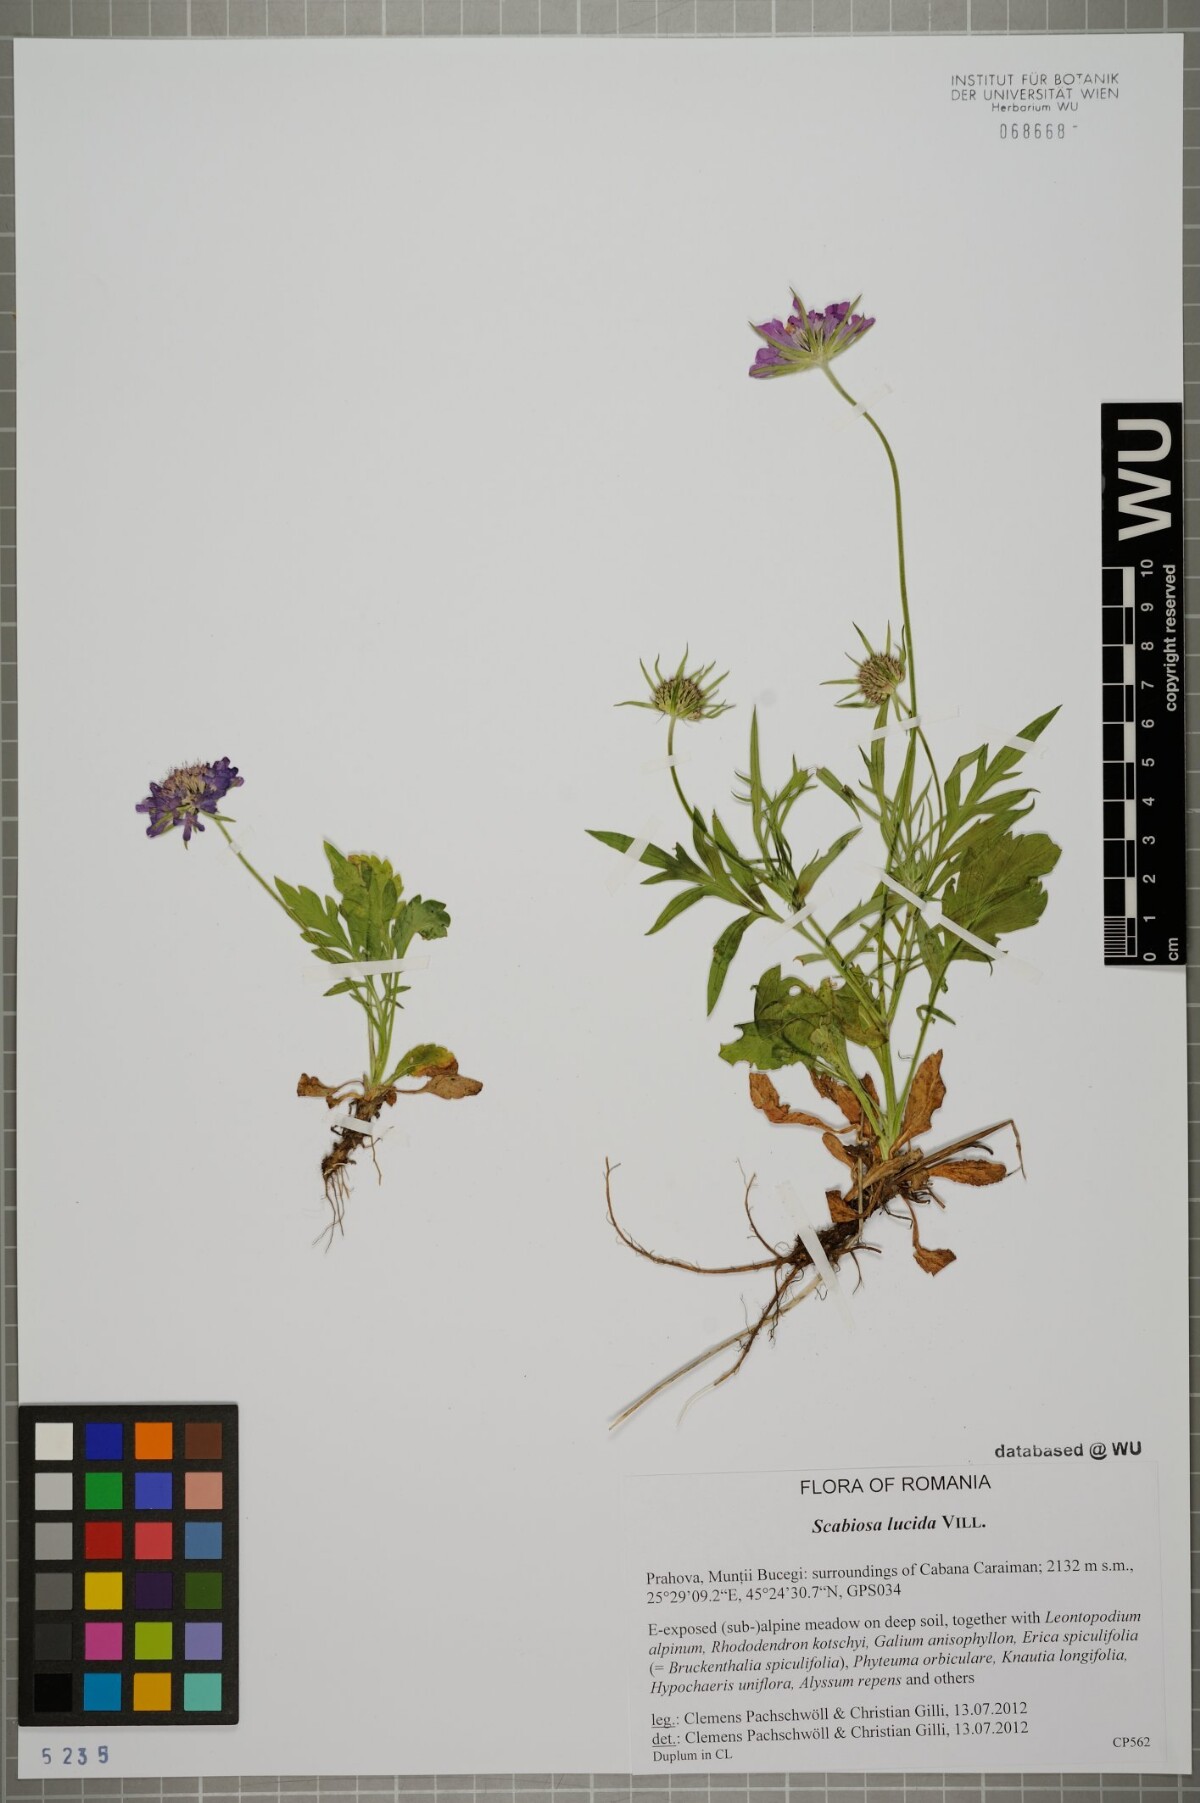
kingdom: Plantae
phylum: Tracheophyta
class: Magnoliopsida
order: Dipsacales
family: Caprifoliaceae
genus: Scabiosa
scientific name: Scabiosa lucida
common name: Shining scabious
